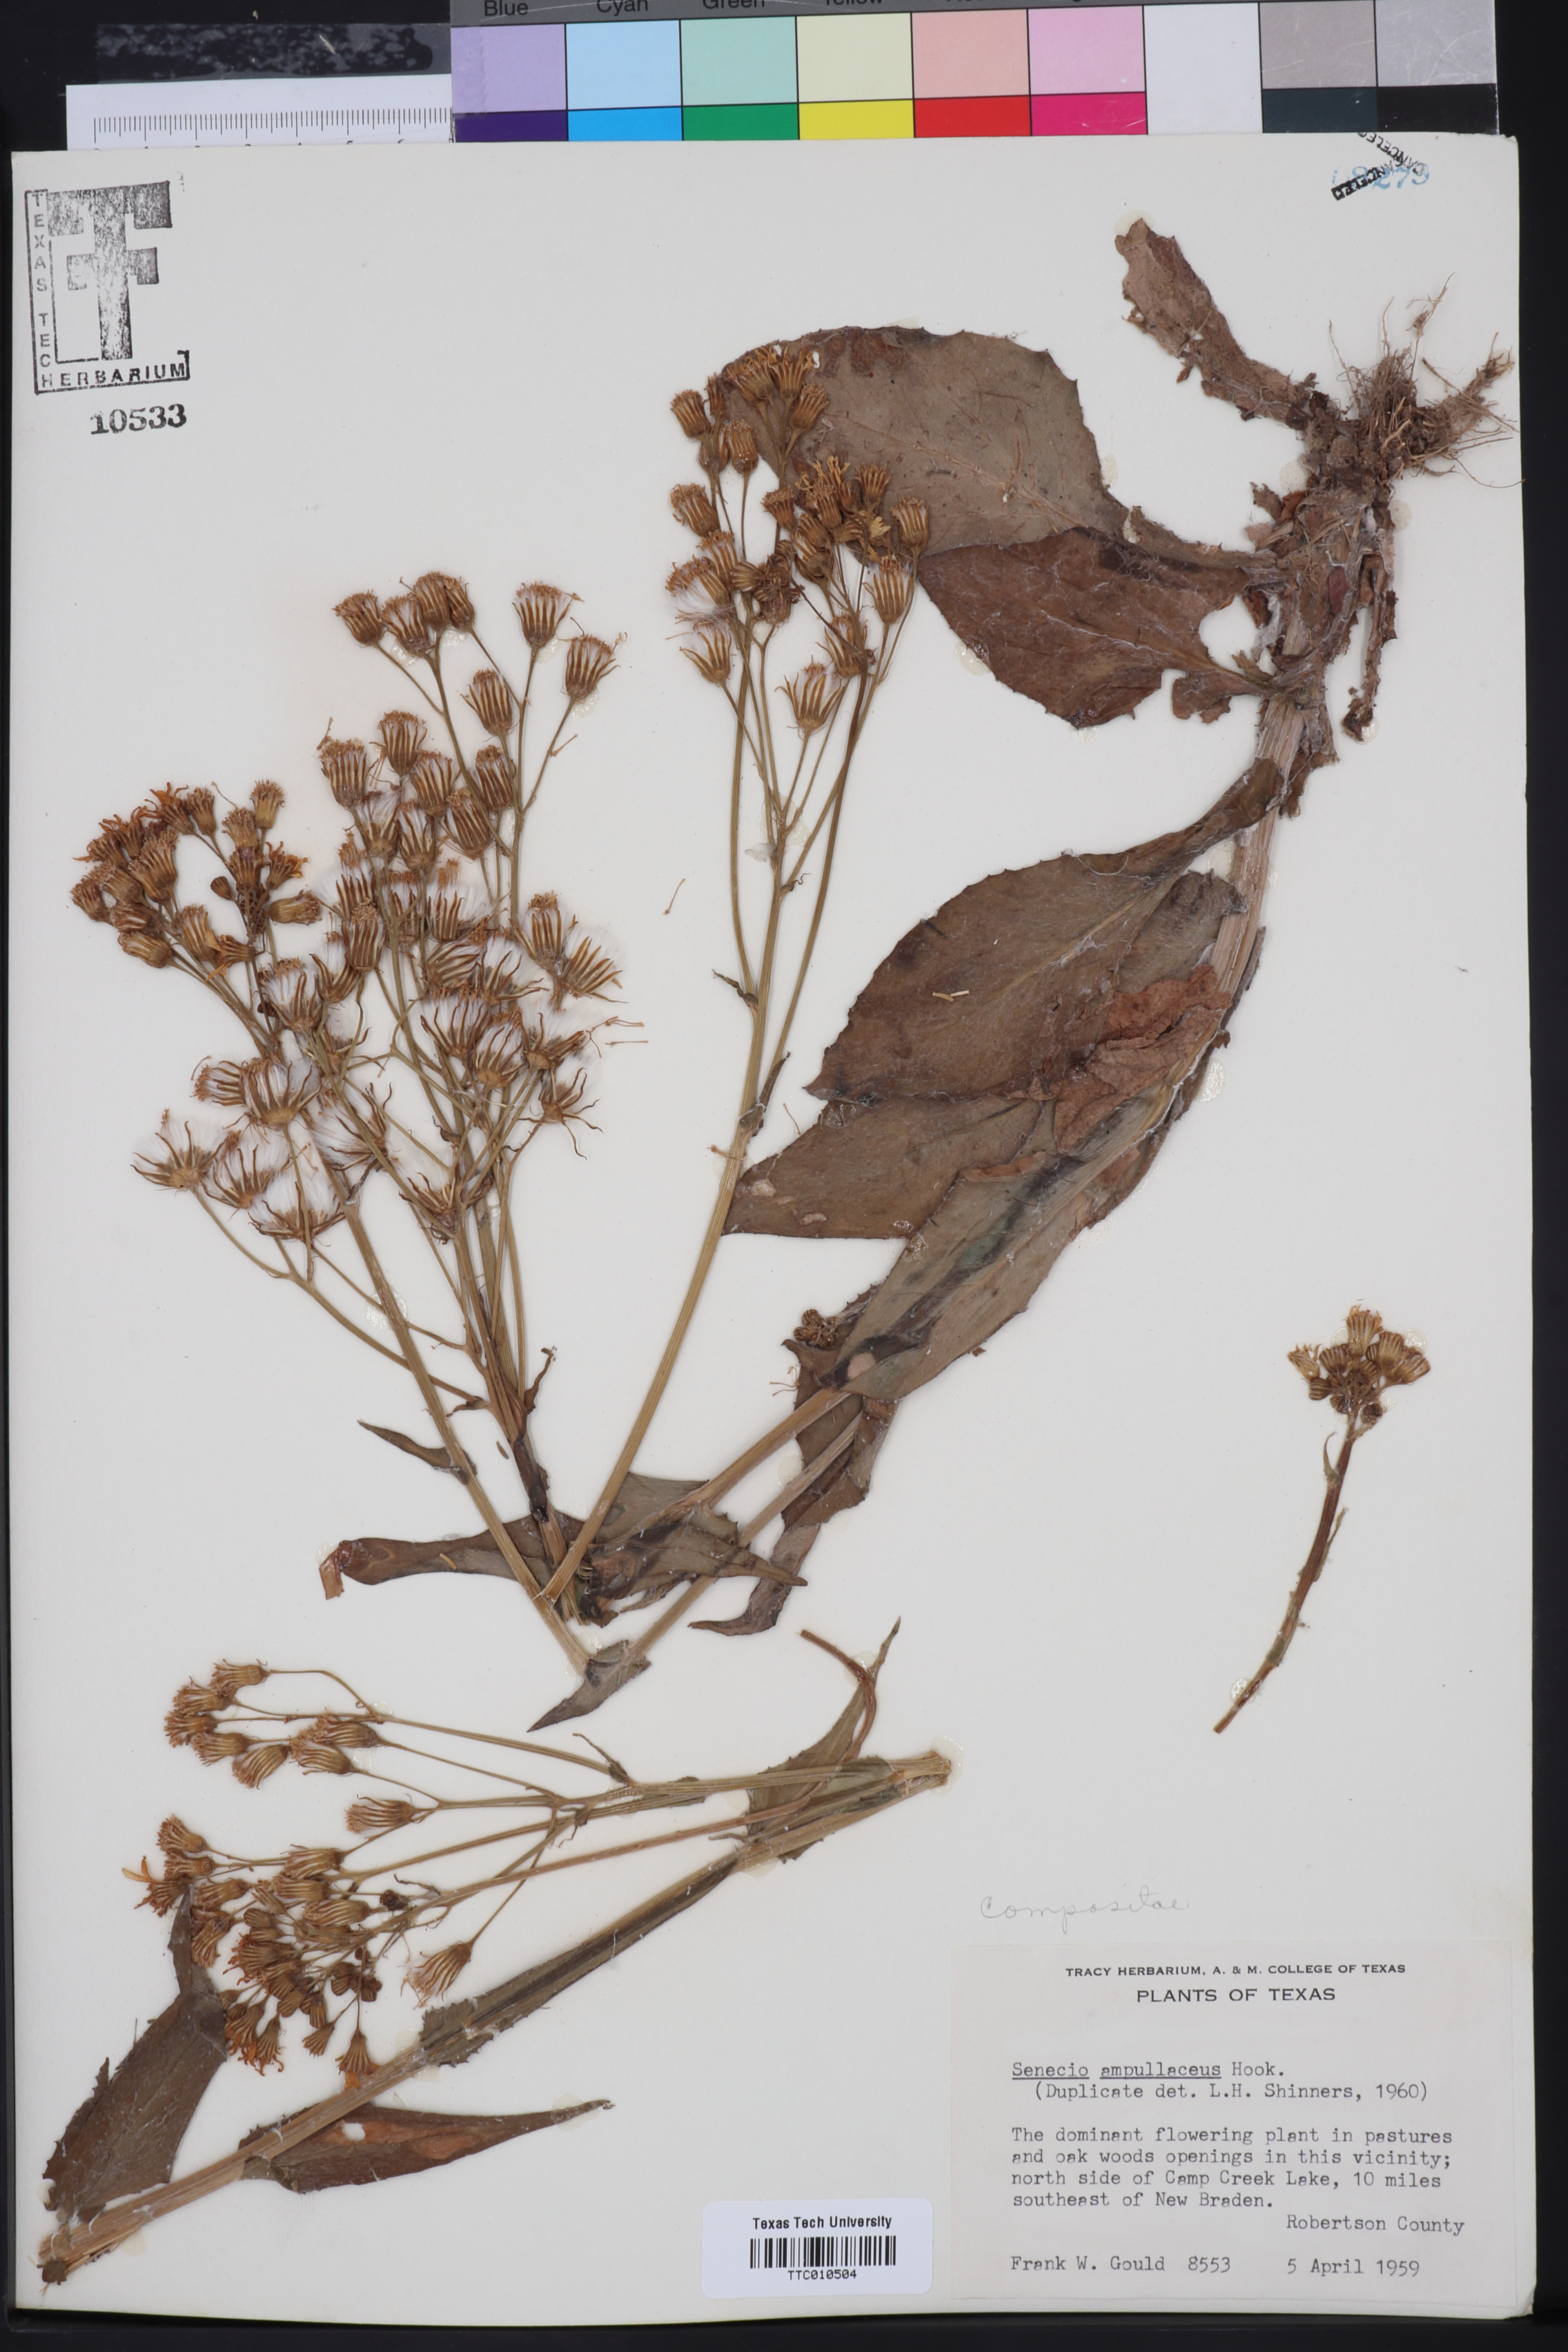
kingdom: Plantae
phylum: Tracheophyta
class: Magnoliopsida
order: Asterales
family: Asteraceae
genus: Senecio
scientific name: Senecio ampullaceus
